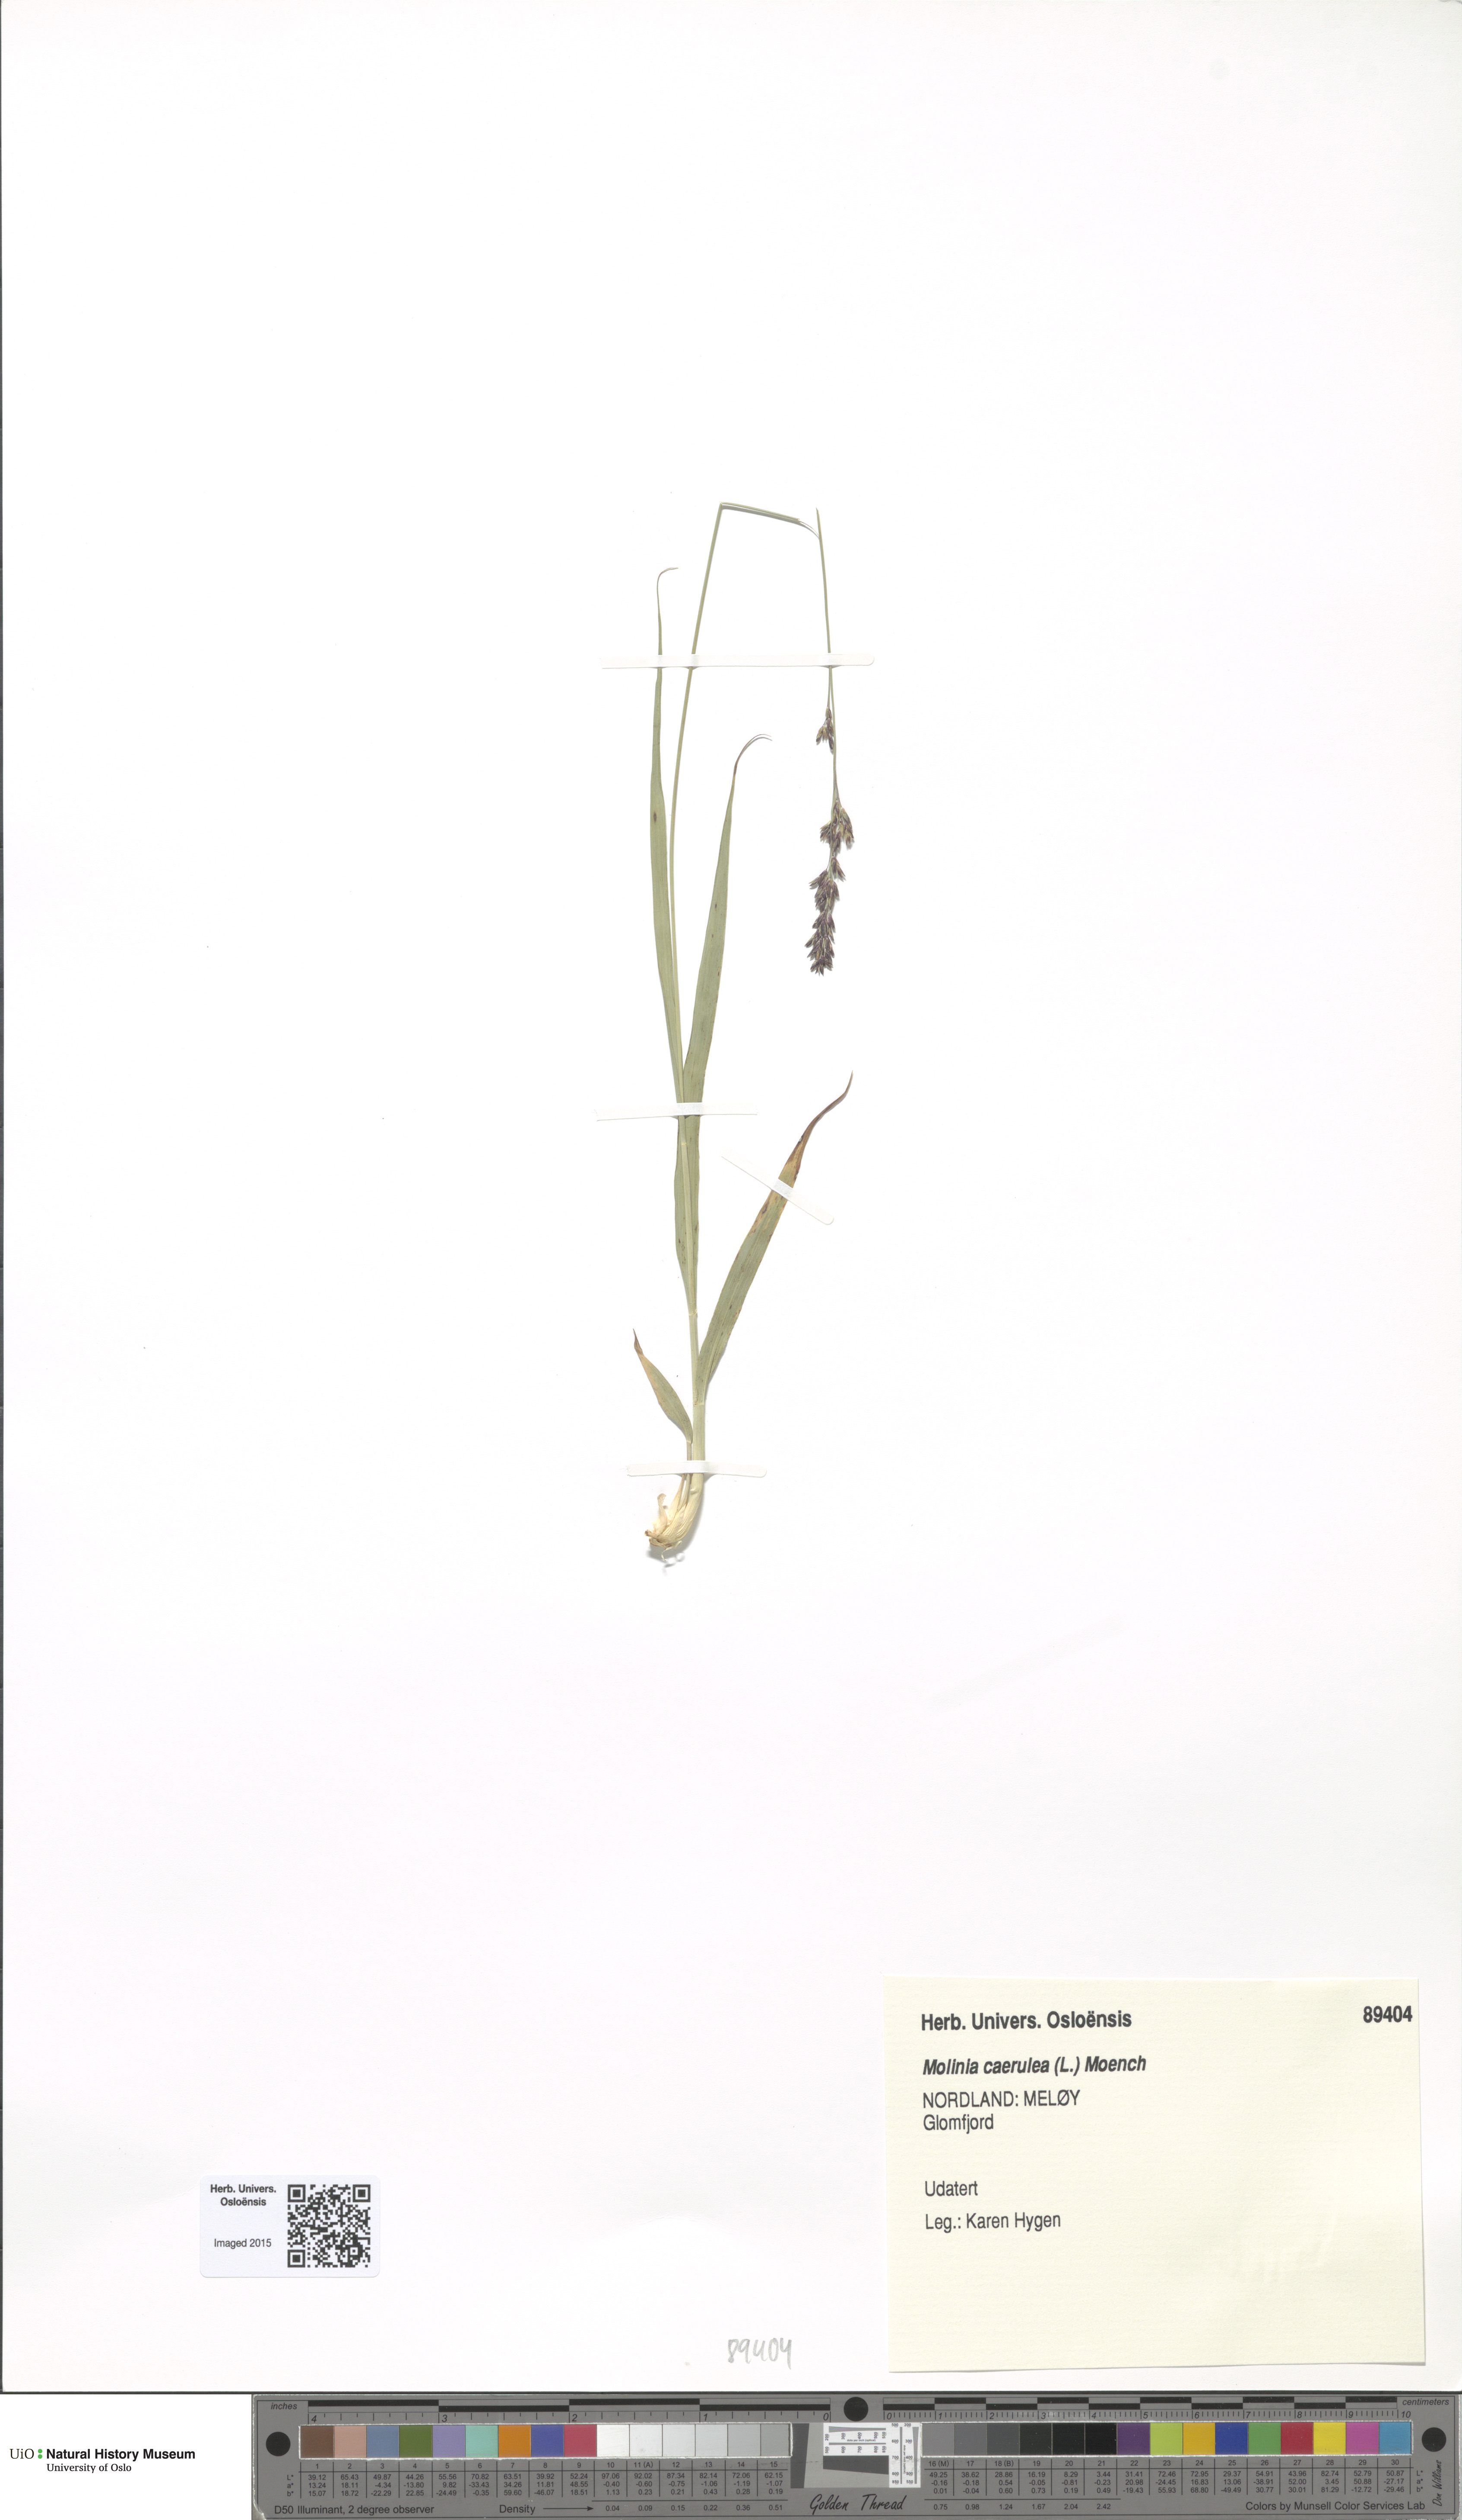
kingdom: Plantae
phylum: Tracheophyta
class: Liliopsida
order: Poales
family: Poaceae
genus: Molinia
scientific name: Molinia caerulea
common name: Purple moor-grass
